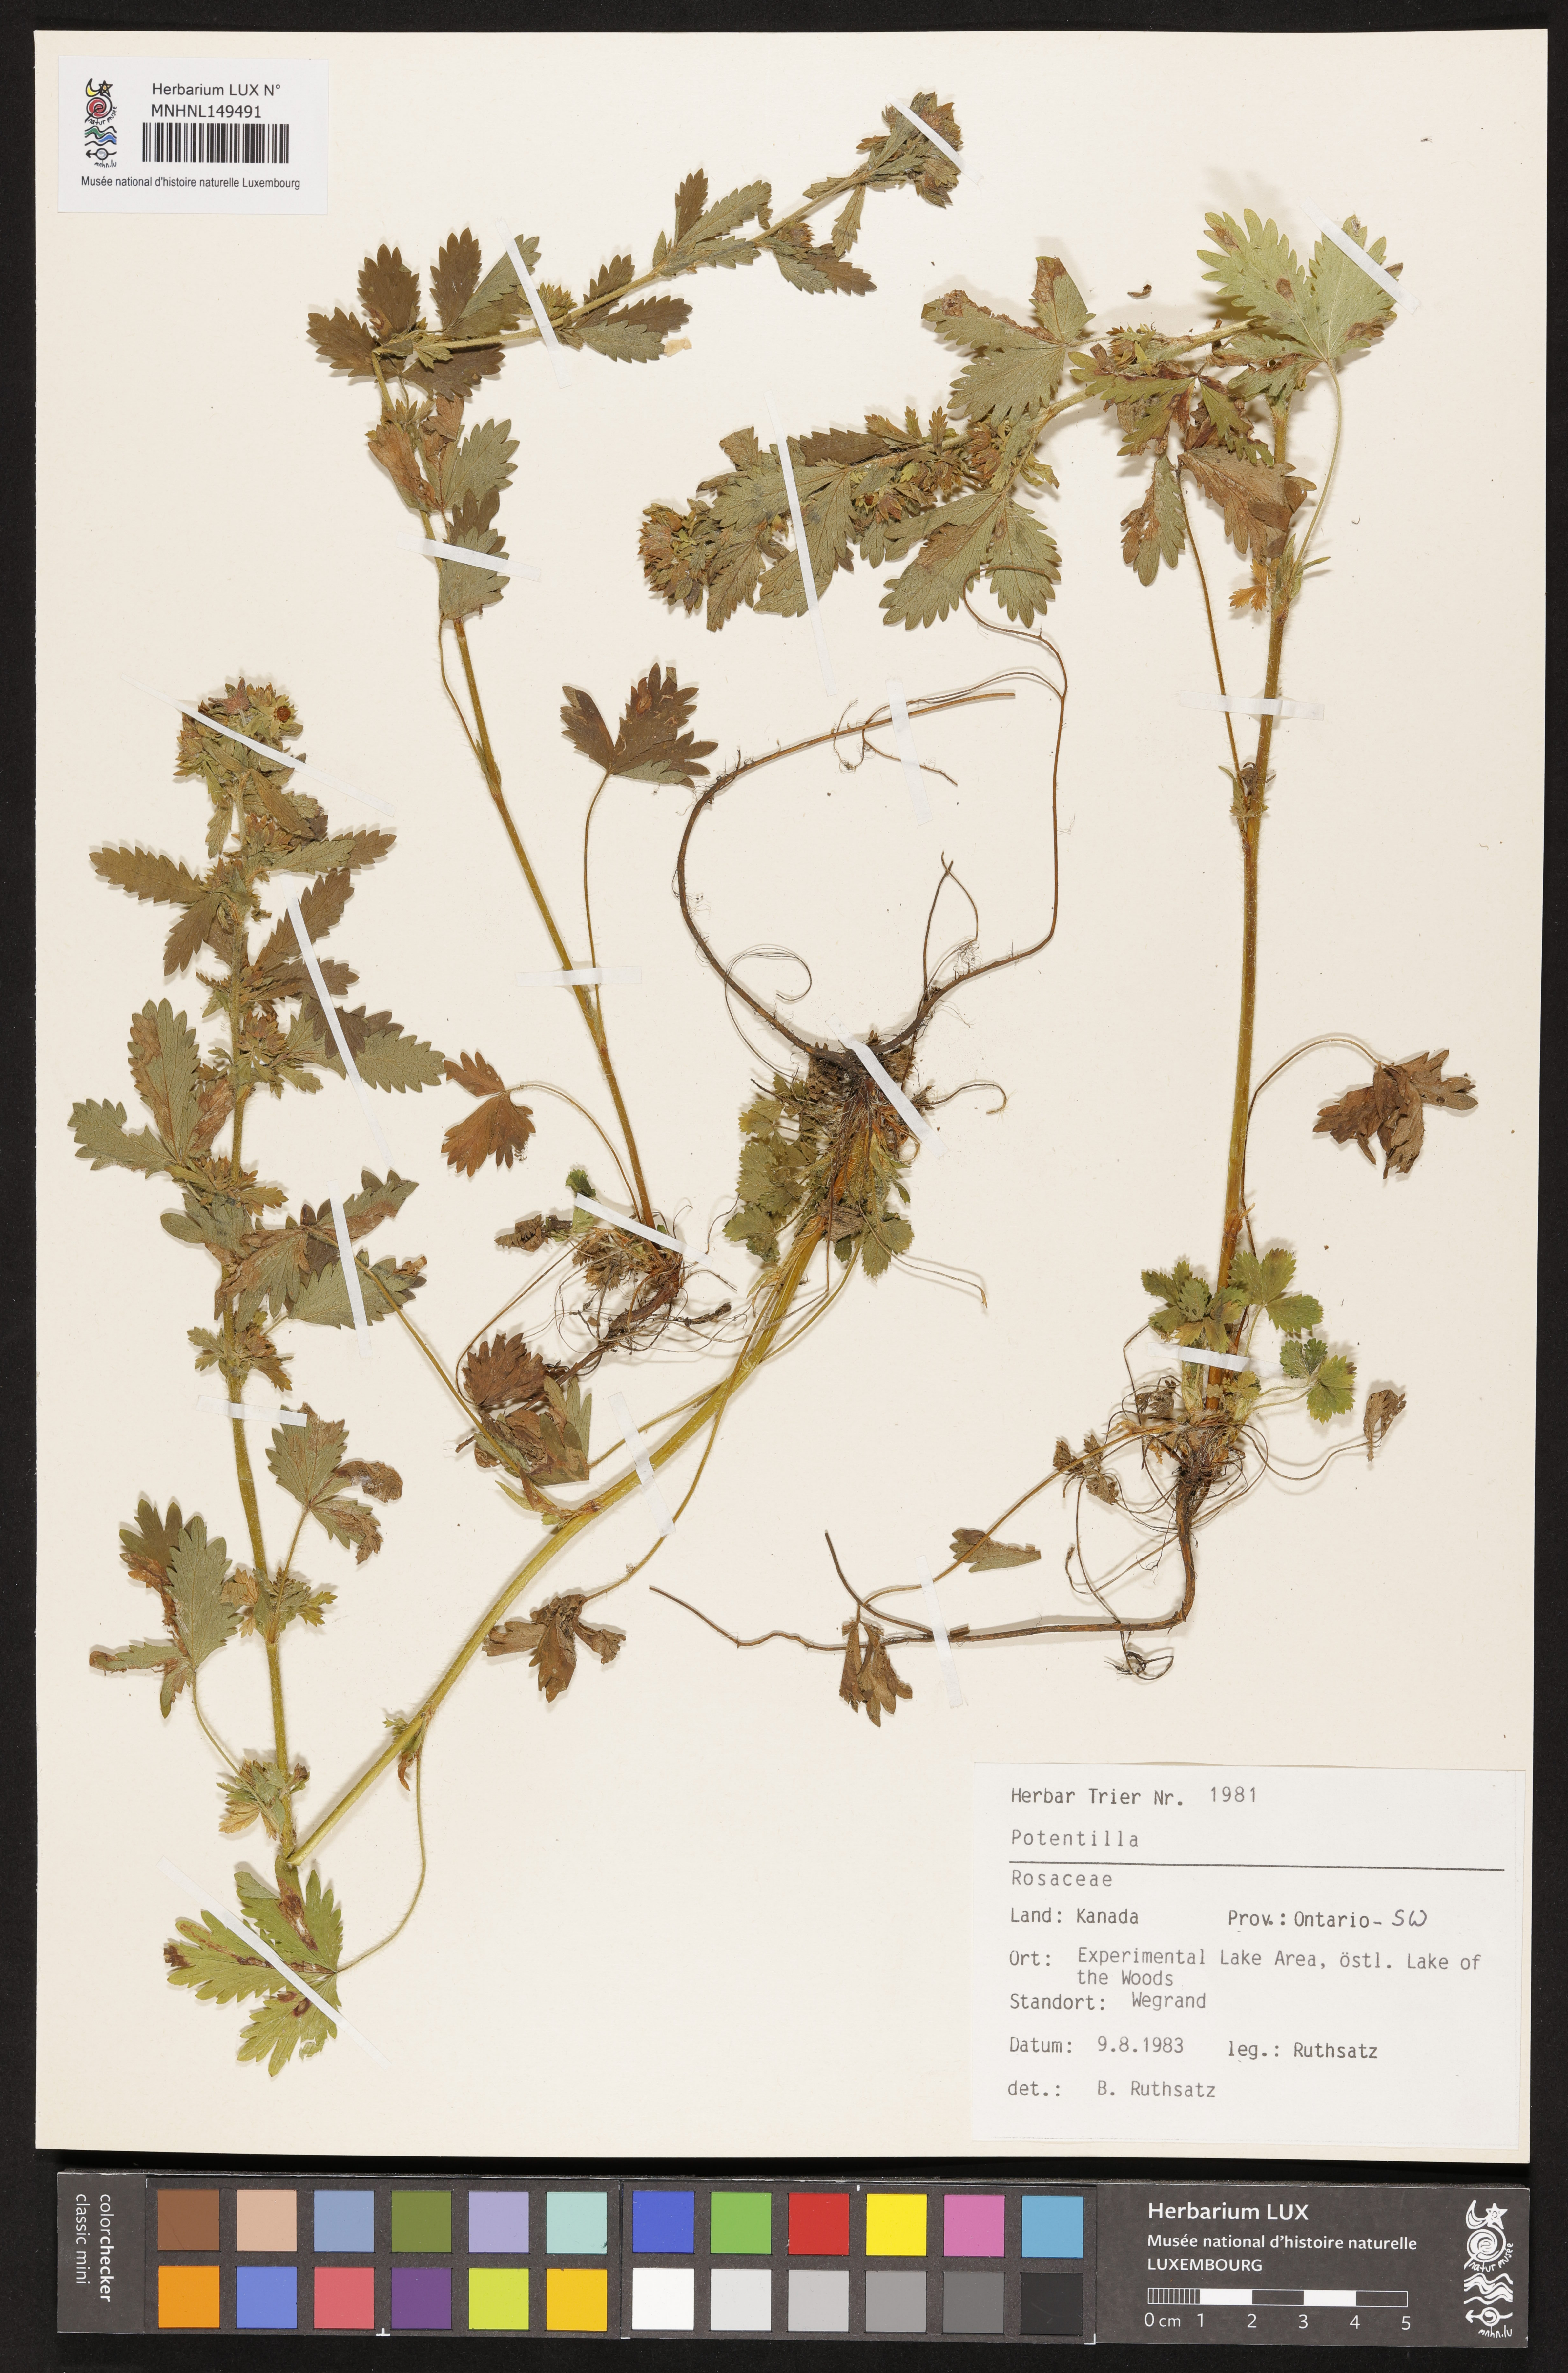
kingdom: Plantae
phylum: Tracheophyta
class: Magnoliopsida
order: Rosales
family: Rosaceae
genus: Potentilla
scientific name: Potentilla
